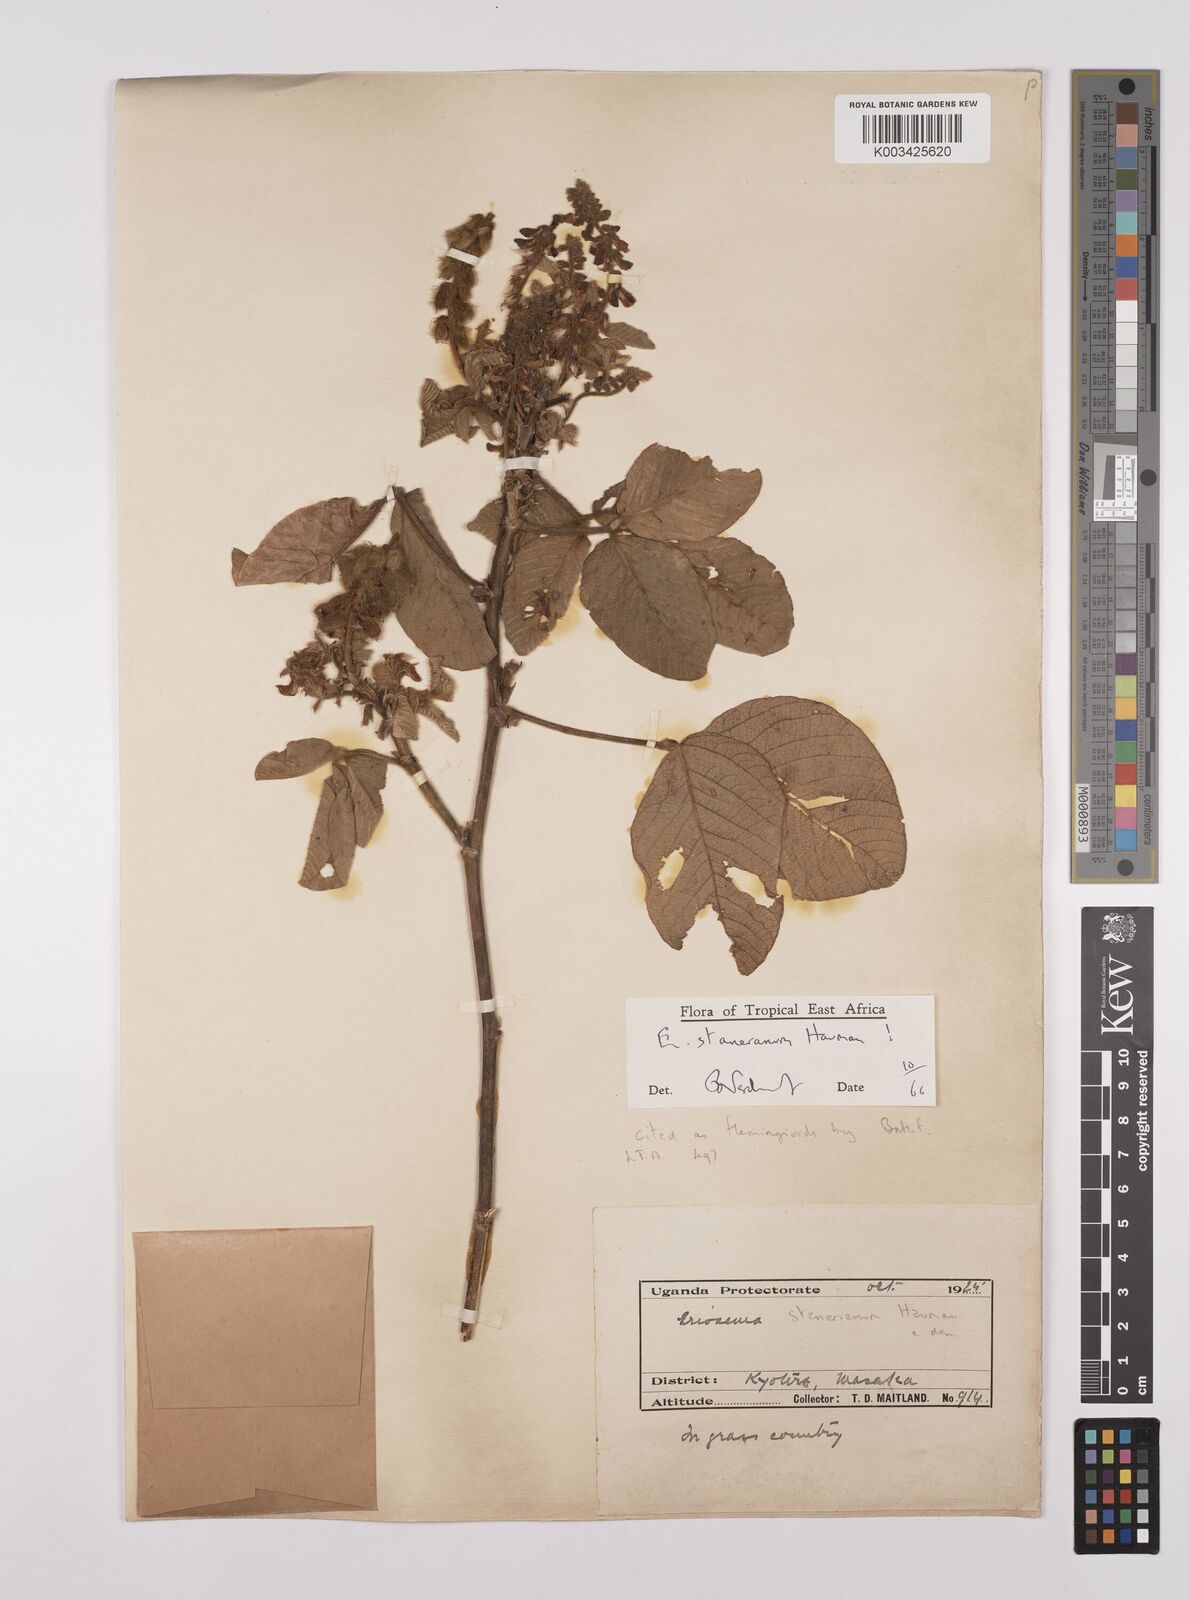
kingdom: Plantae
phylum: Tracheophyta
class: Magnoliopsida
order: Fabales
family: Fabaceae
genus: Eriosema
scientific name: Eriosema angolense
